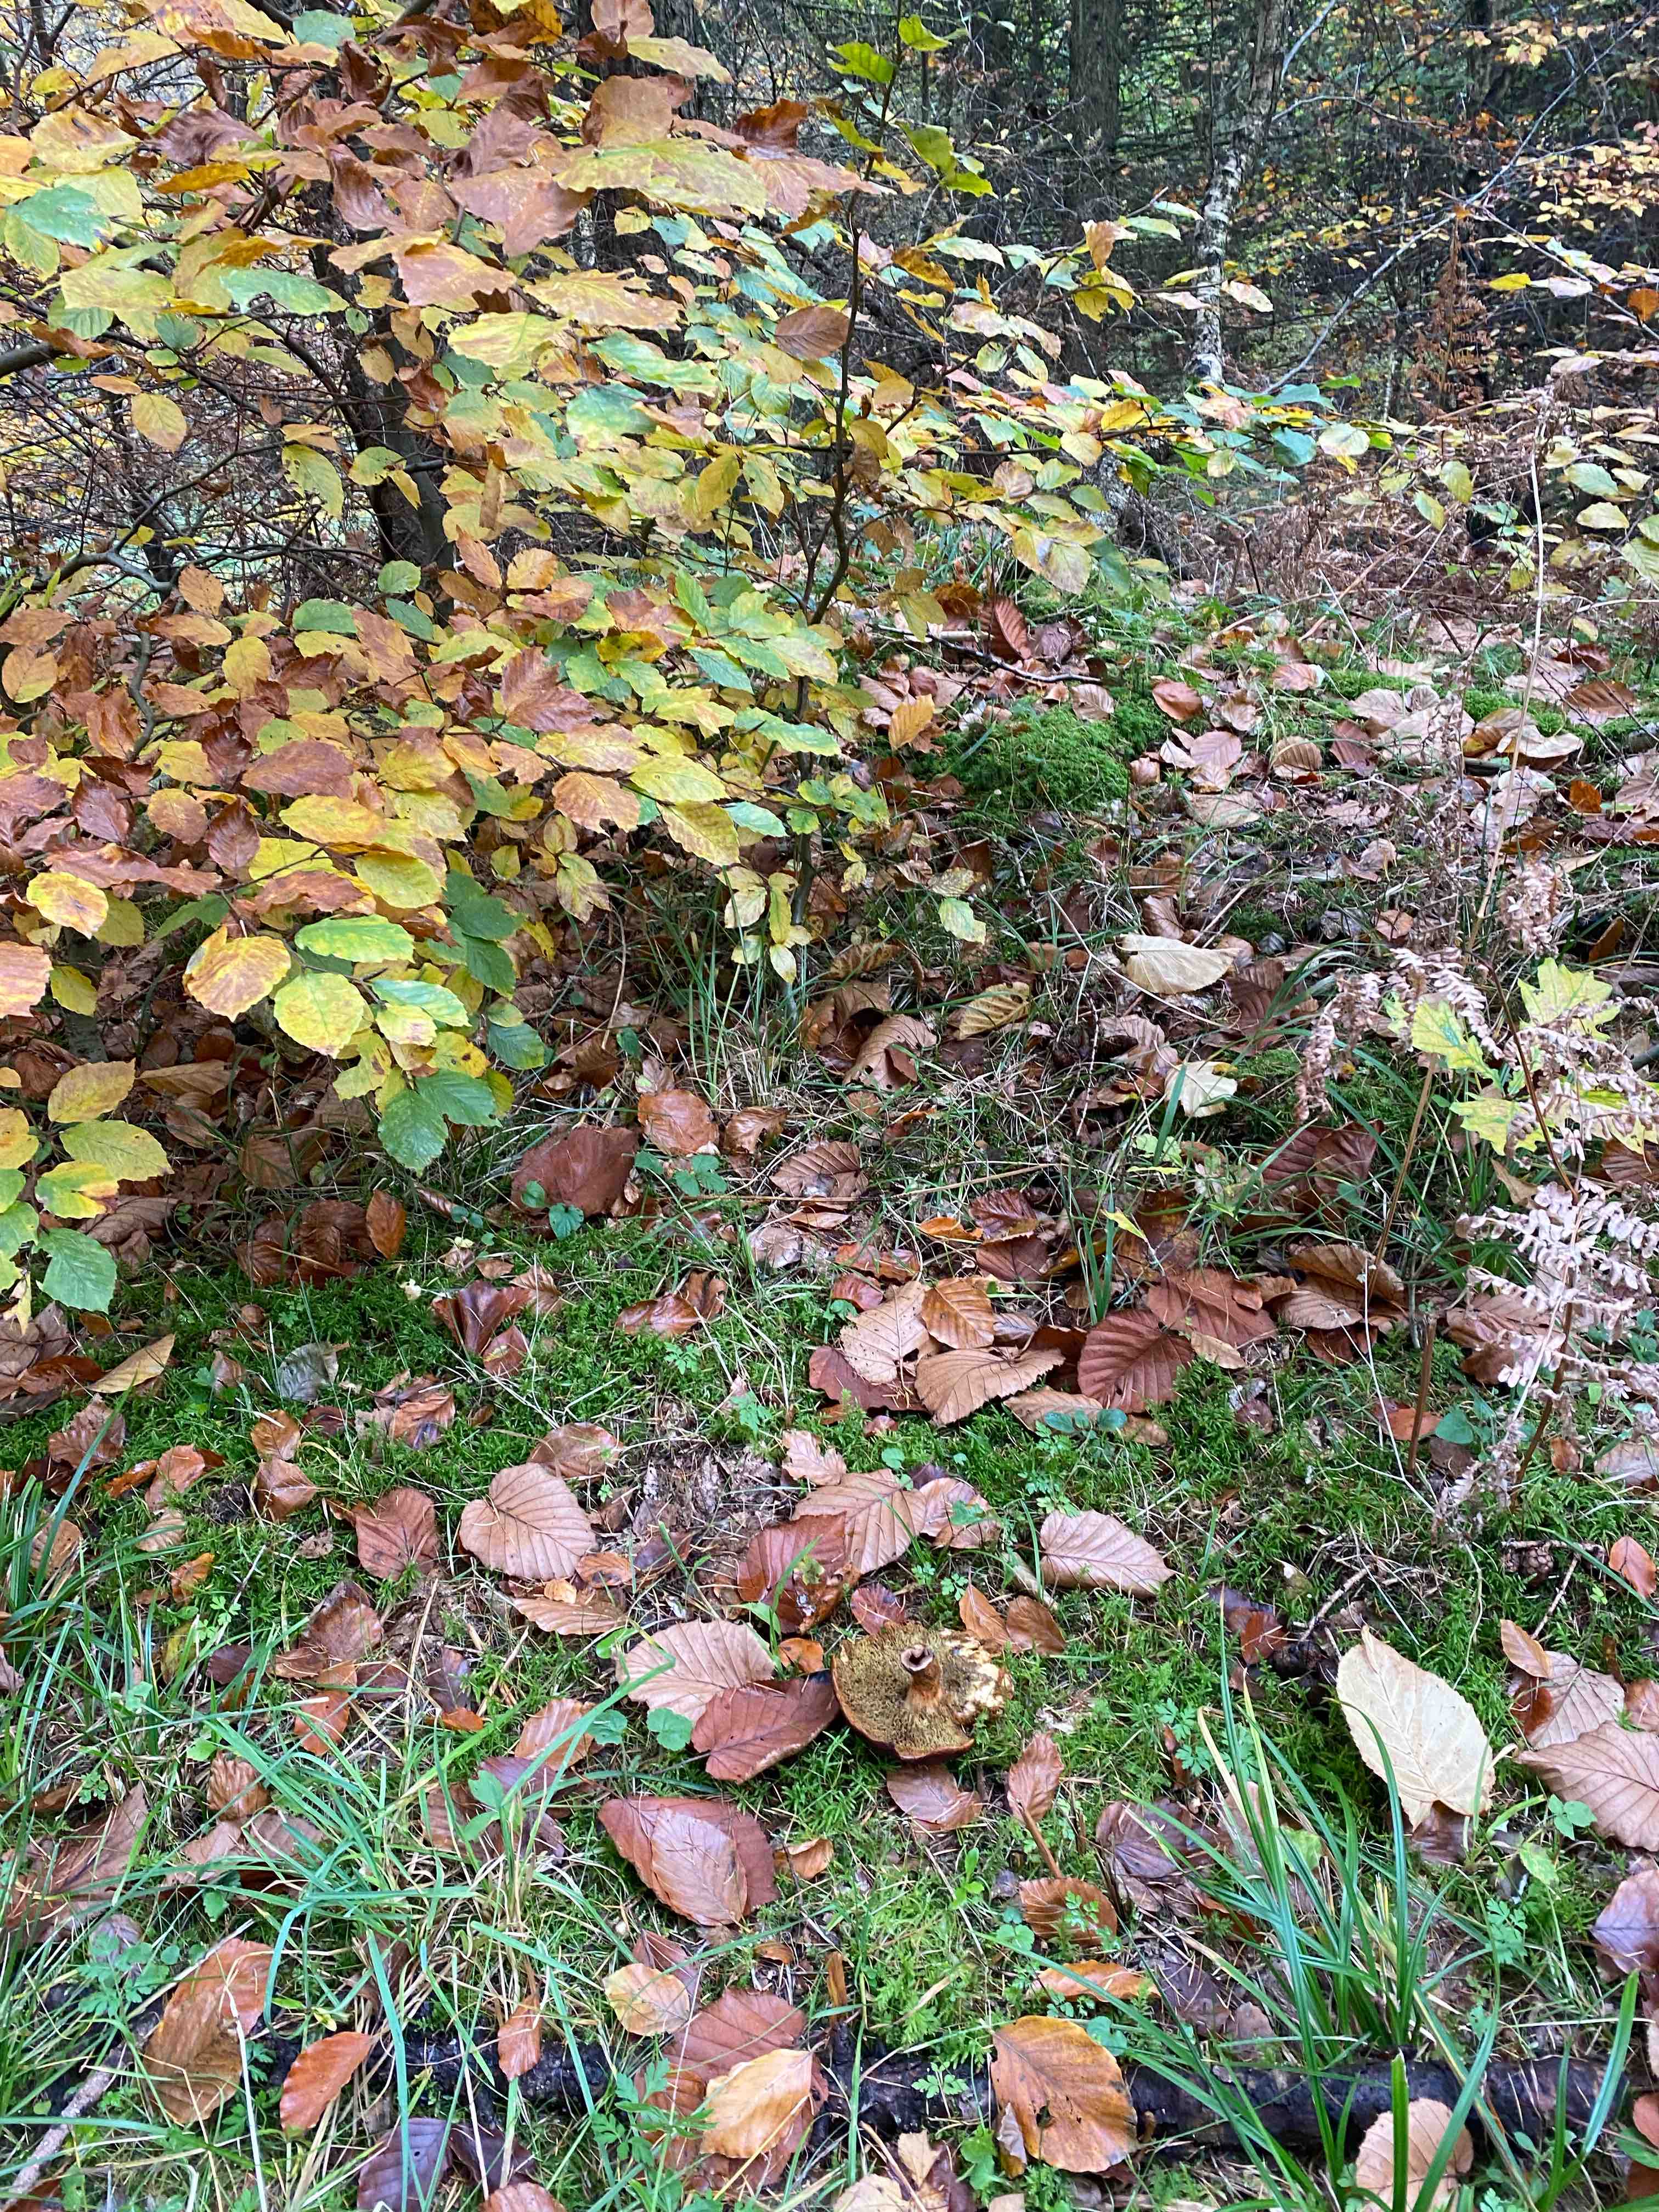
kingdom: Fungi
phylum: Basidiomycota
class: Agaricomycetes
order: Boletales
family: Suillaceae
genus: Suillus
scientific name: Suillus cavipes
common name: hulstokket slimrørhat
